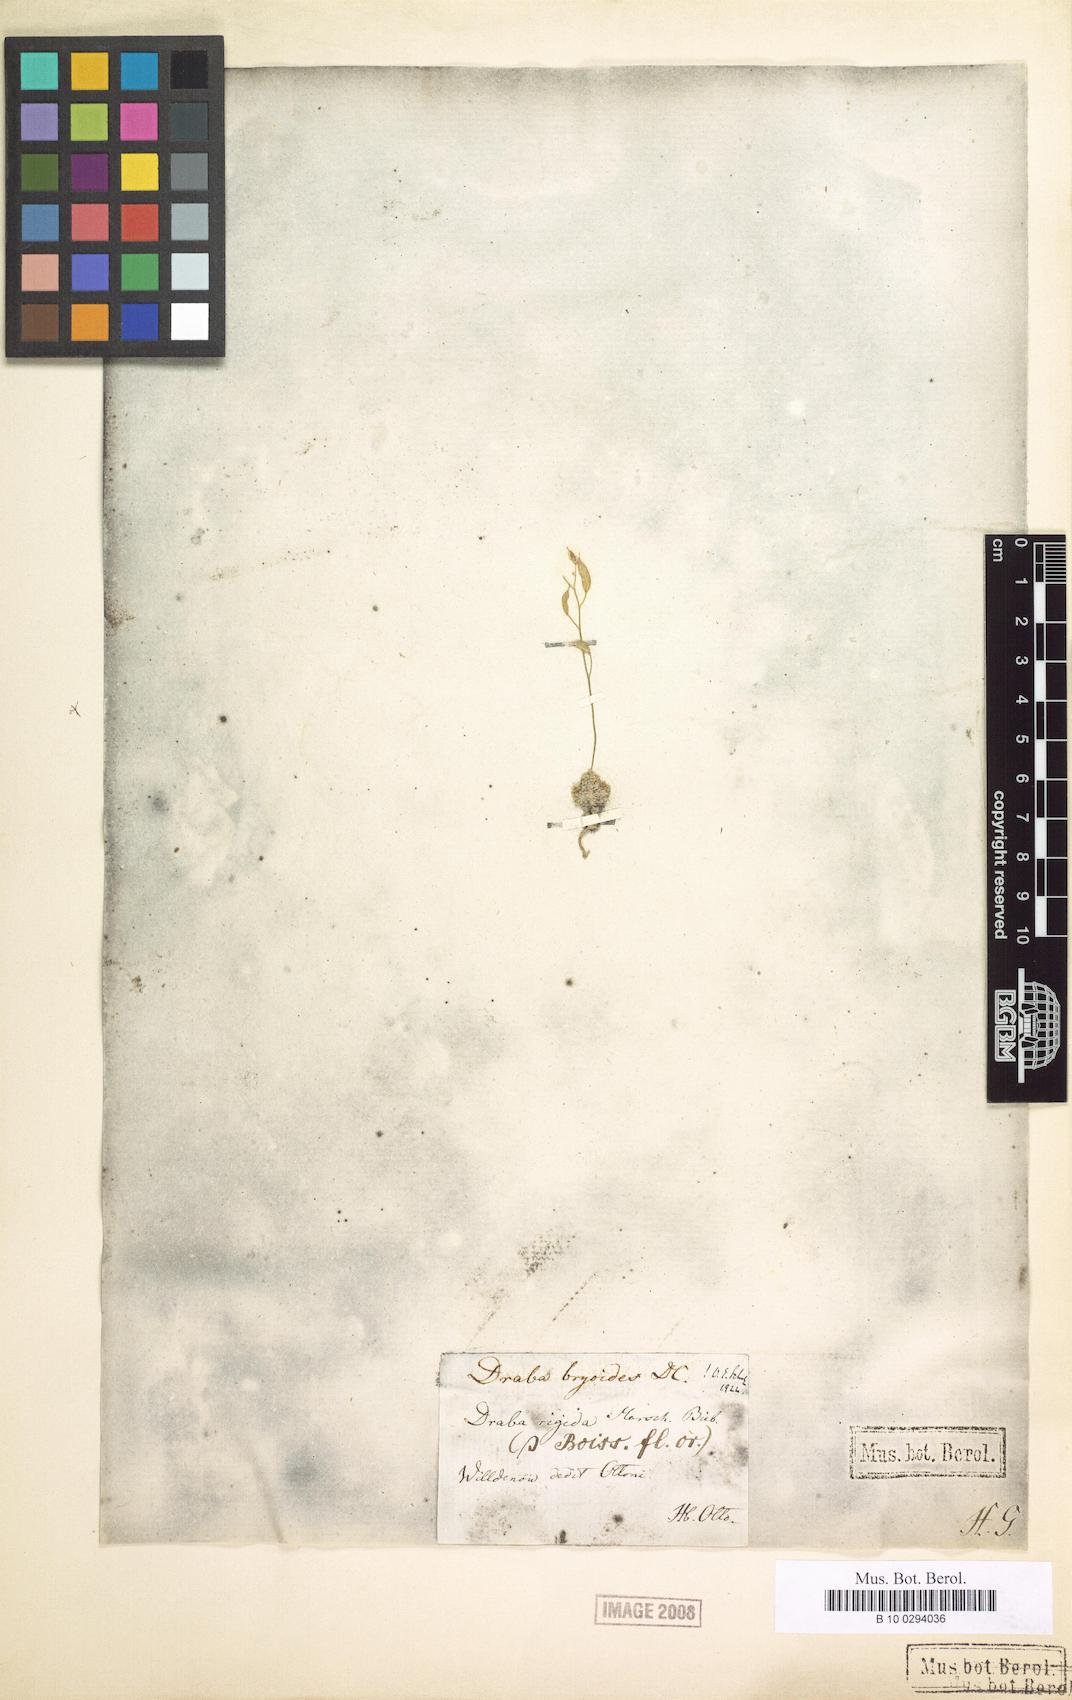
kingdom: Plantae
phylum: Tracheophyta
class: Magnoliopsida
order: Brassicales
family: Brassicaceae
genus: Draba
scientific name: Draba rigida
